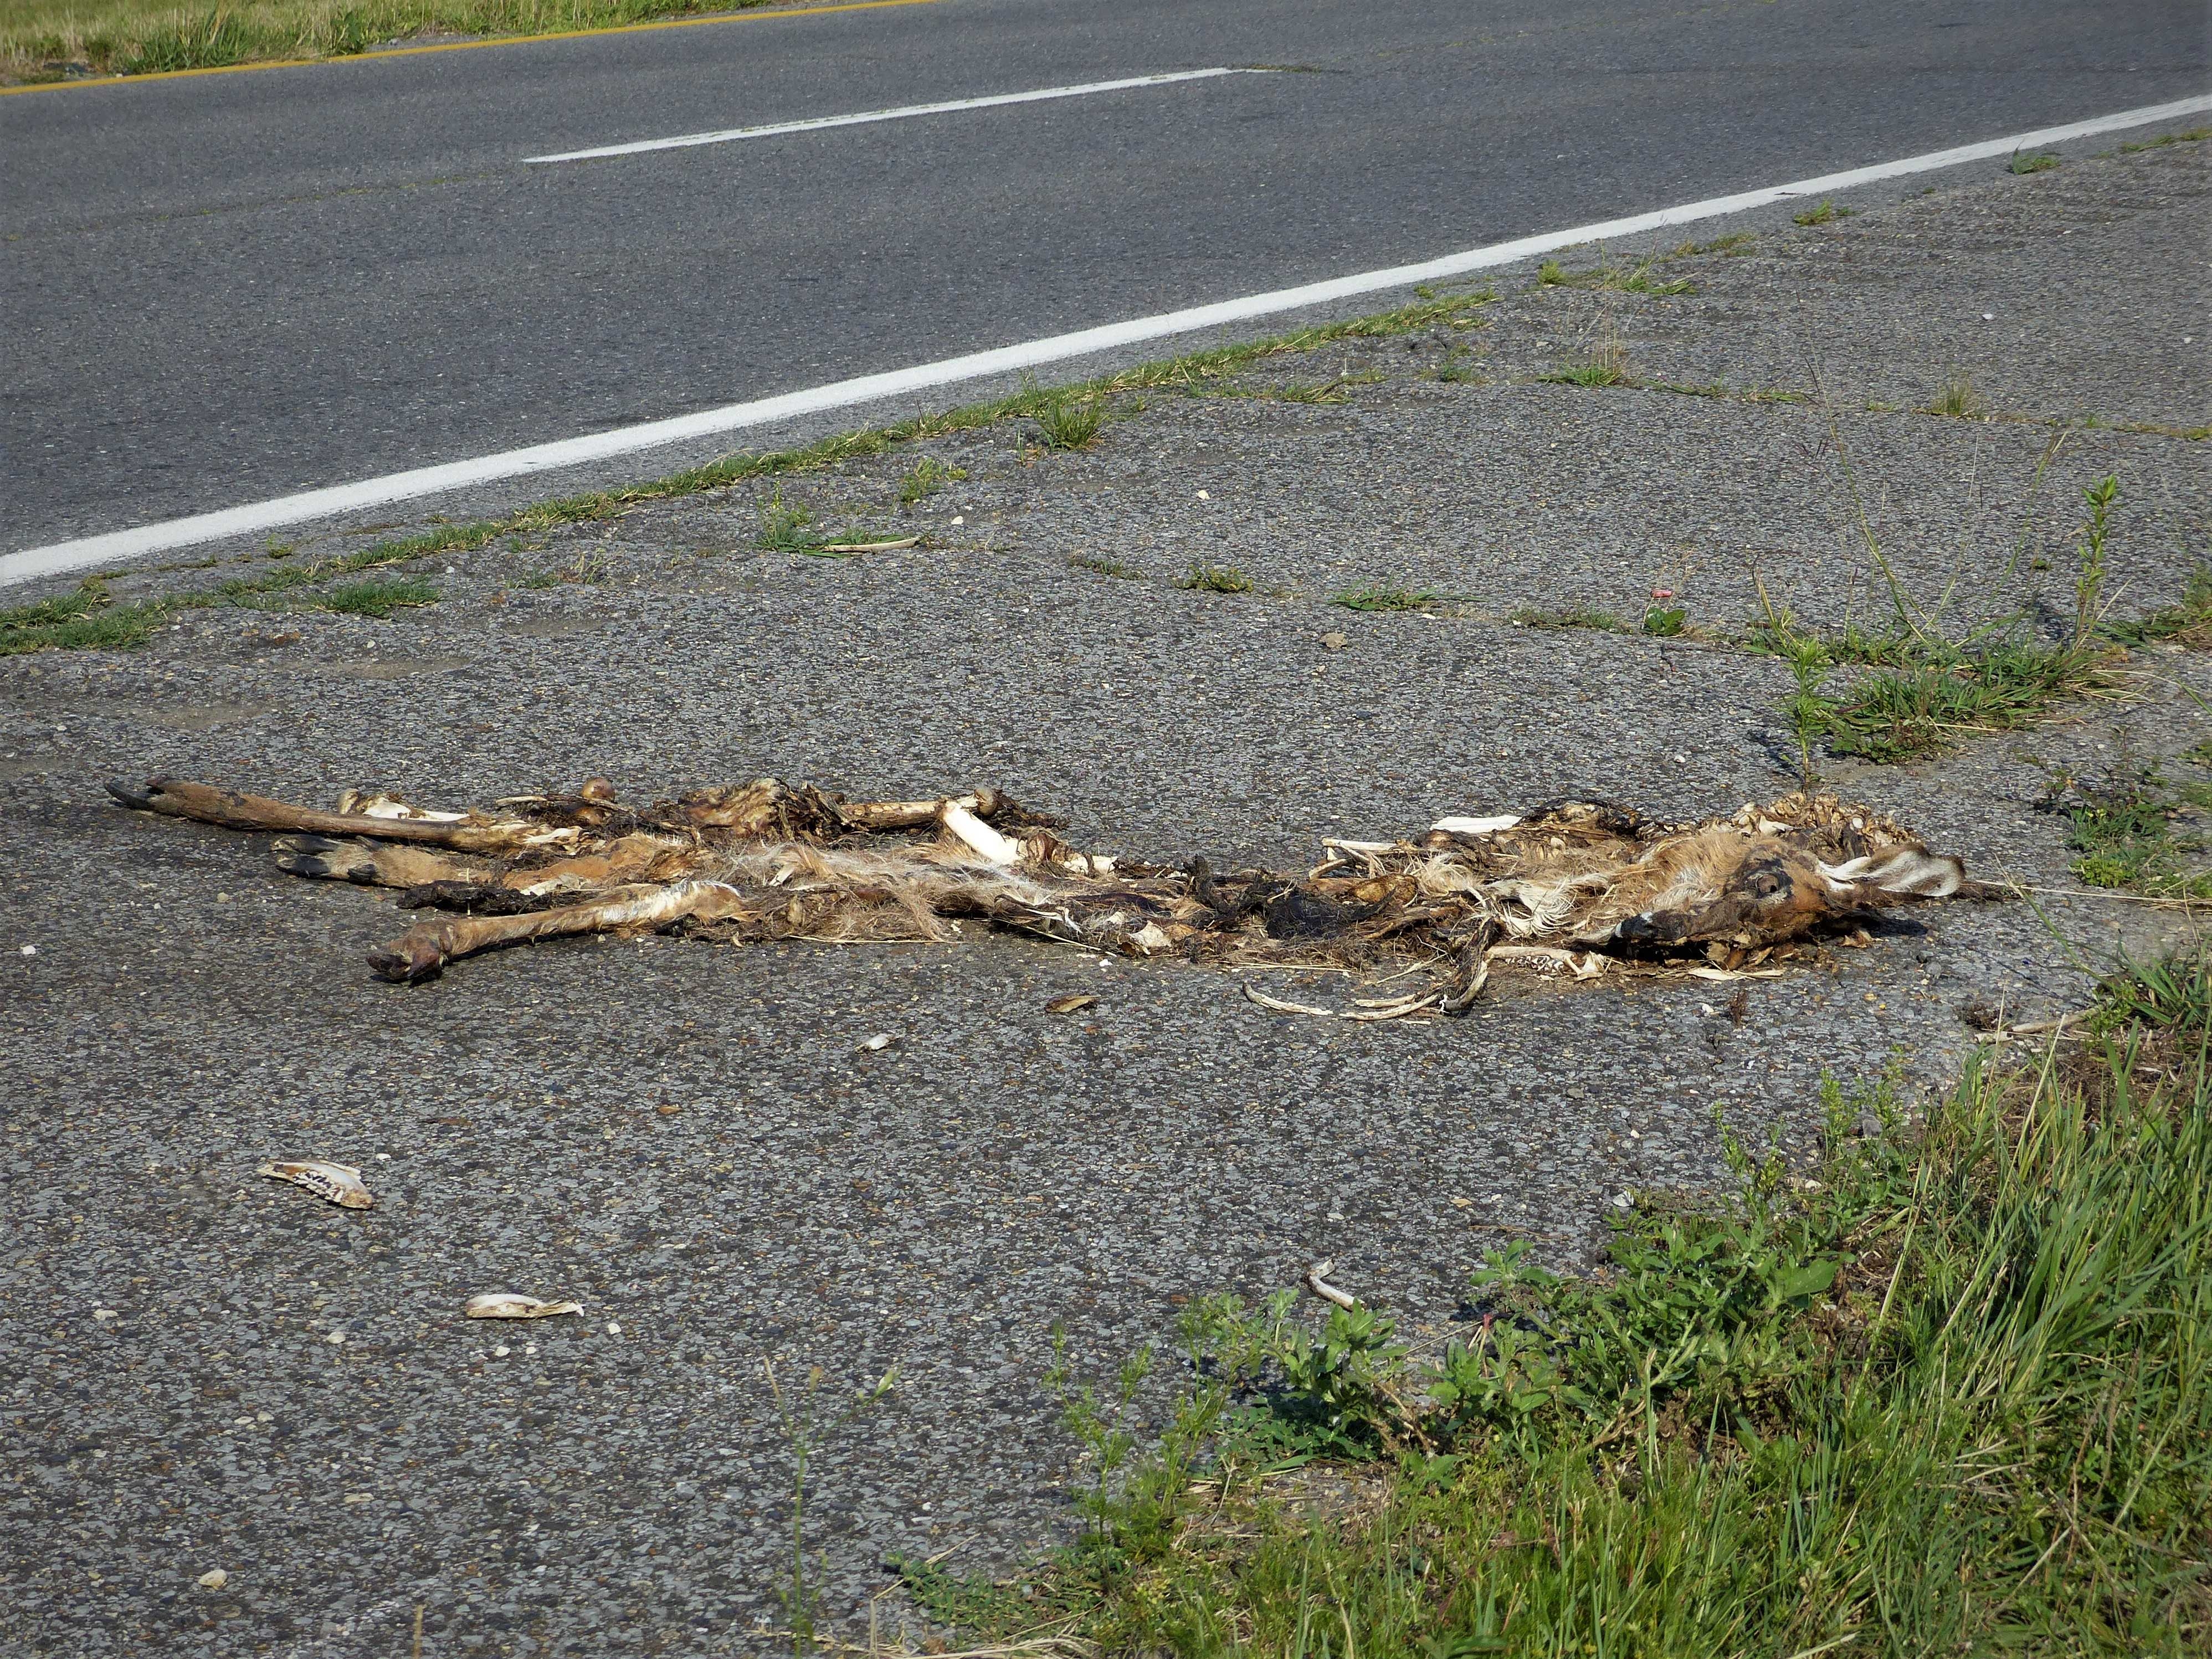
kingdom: Animalia
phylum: Chordata
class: Mammalia
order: Artiodactyla
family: Cervidae
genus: Odocoileus
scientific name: Odocoileus virginianus
